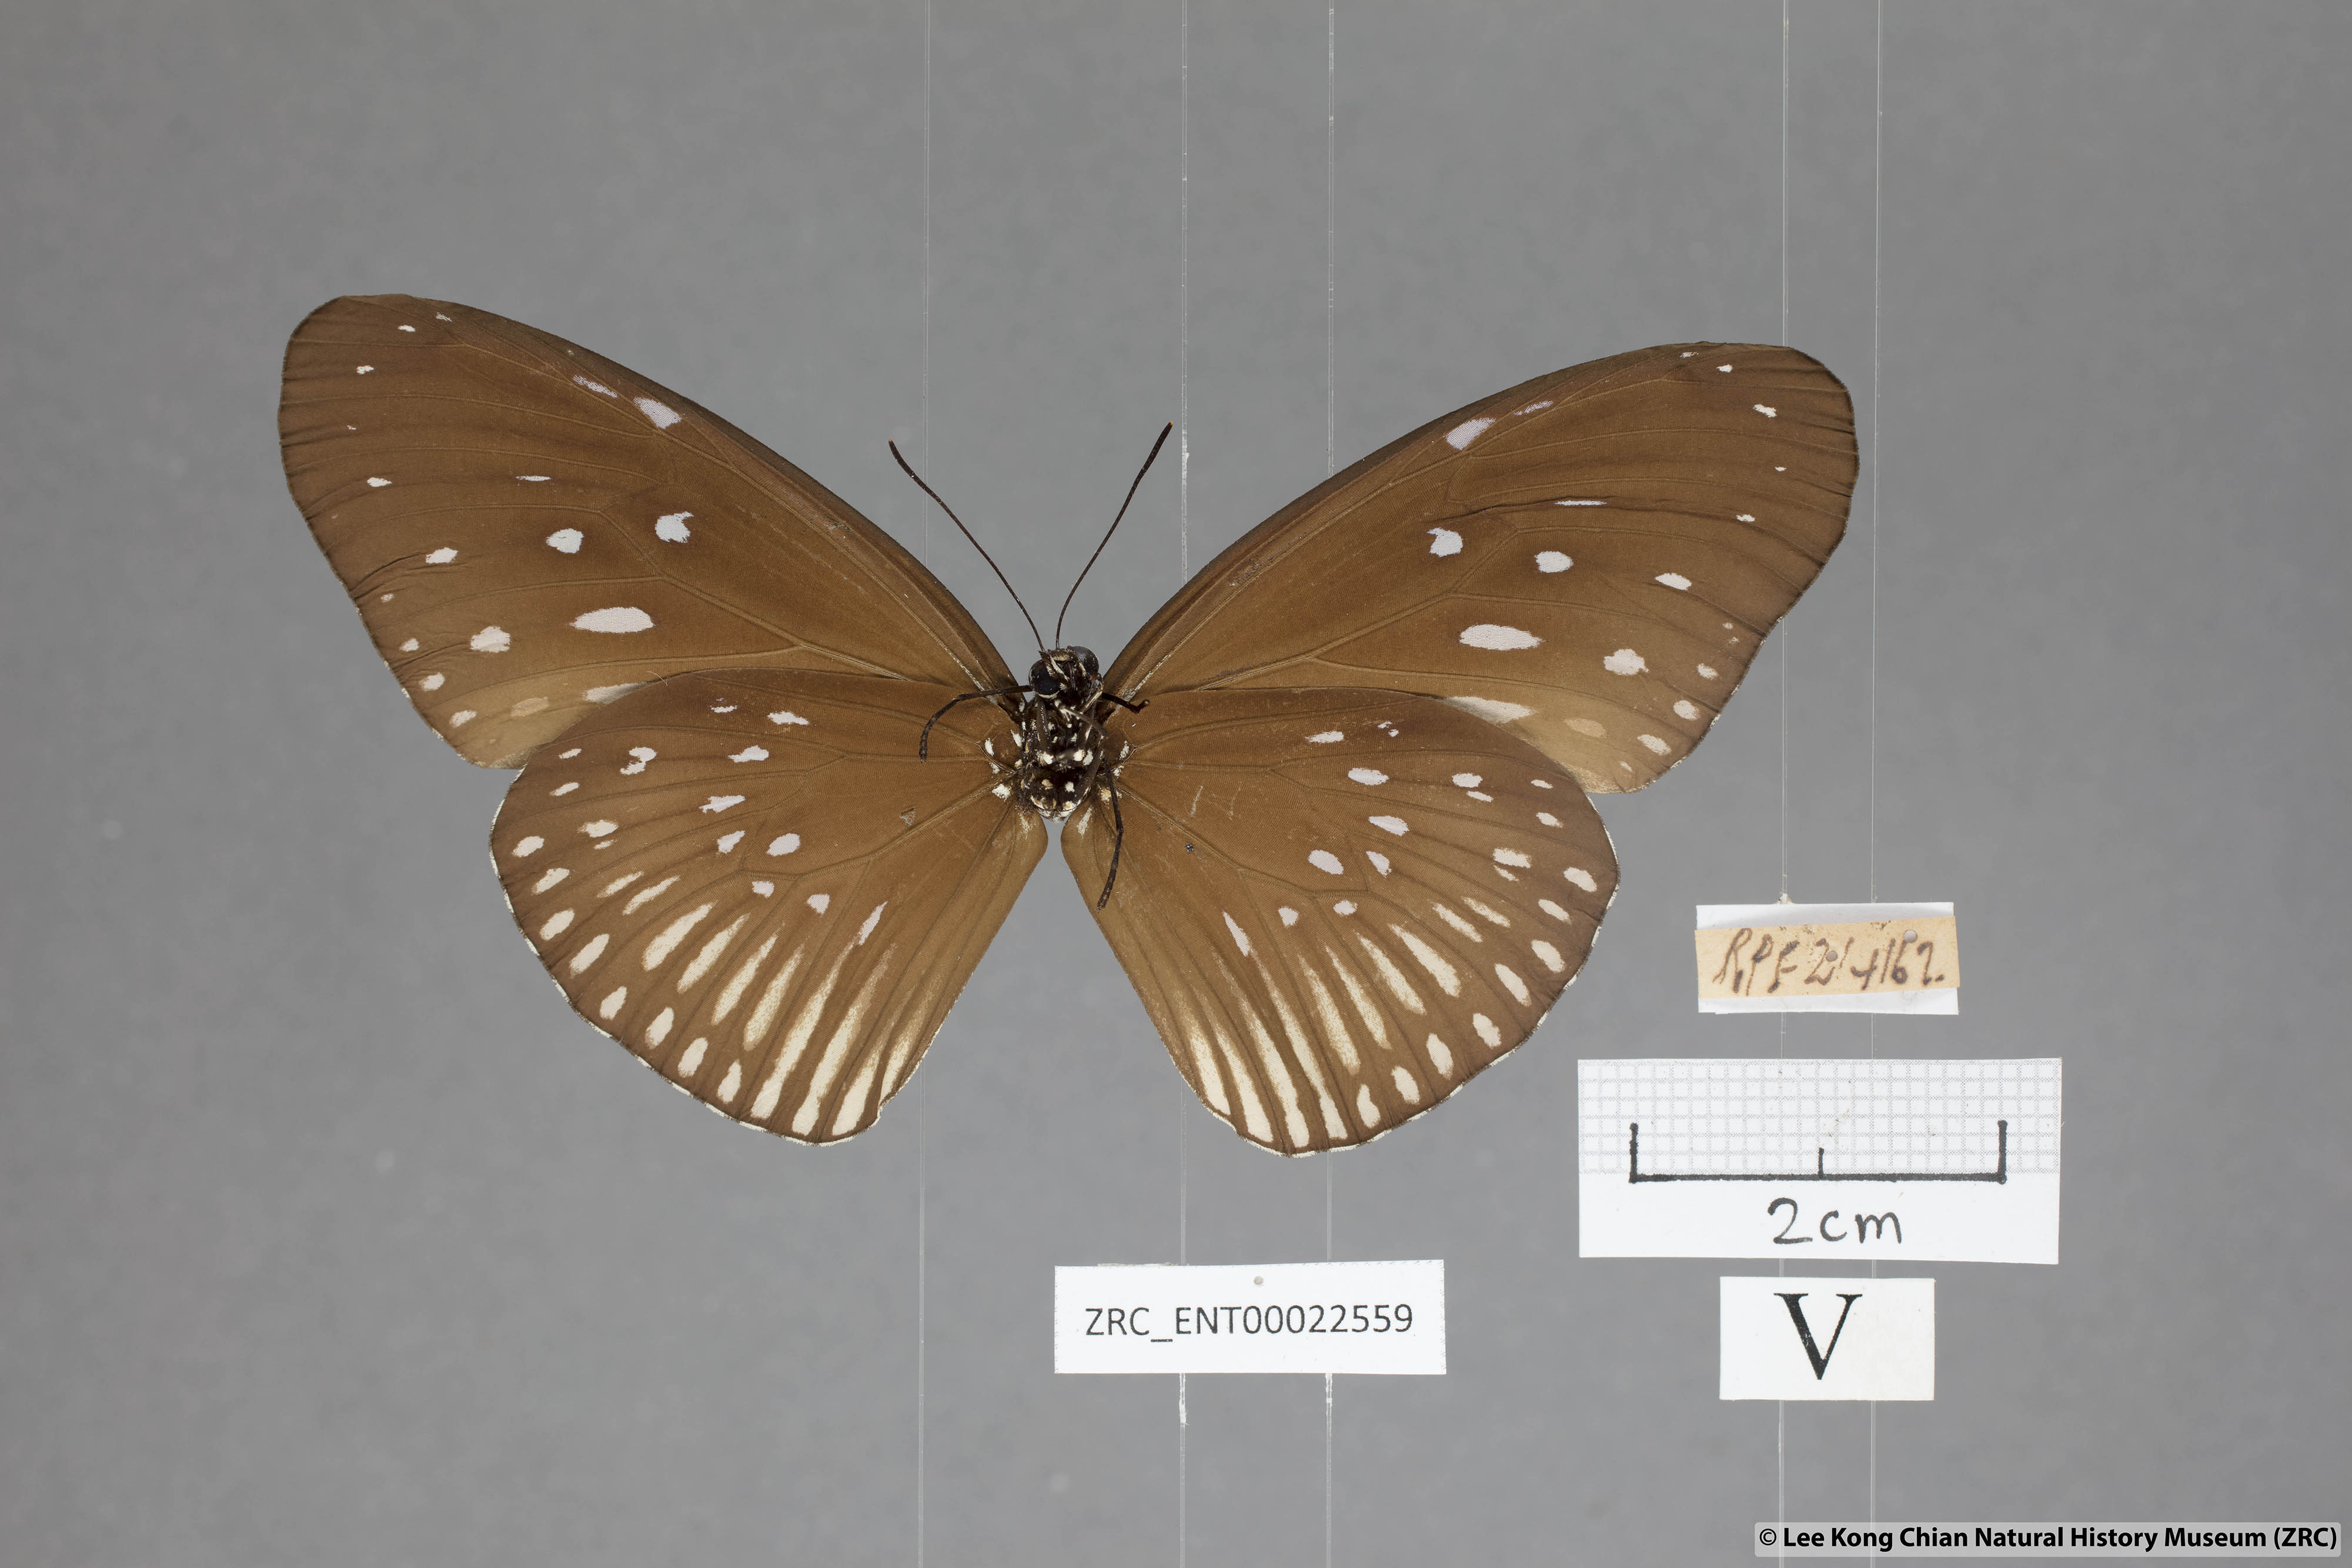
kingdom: Animalia
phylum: Arthropoda
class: Insecta
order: Lepidoptera
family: Nymphalidae
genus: Euploea
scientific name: Euploea eyndhovii
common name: Striped black crow butterfly
